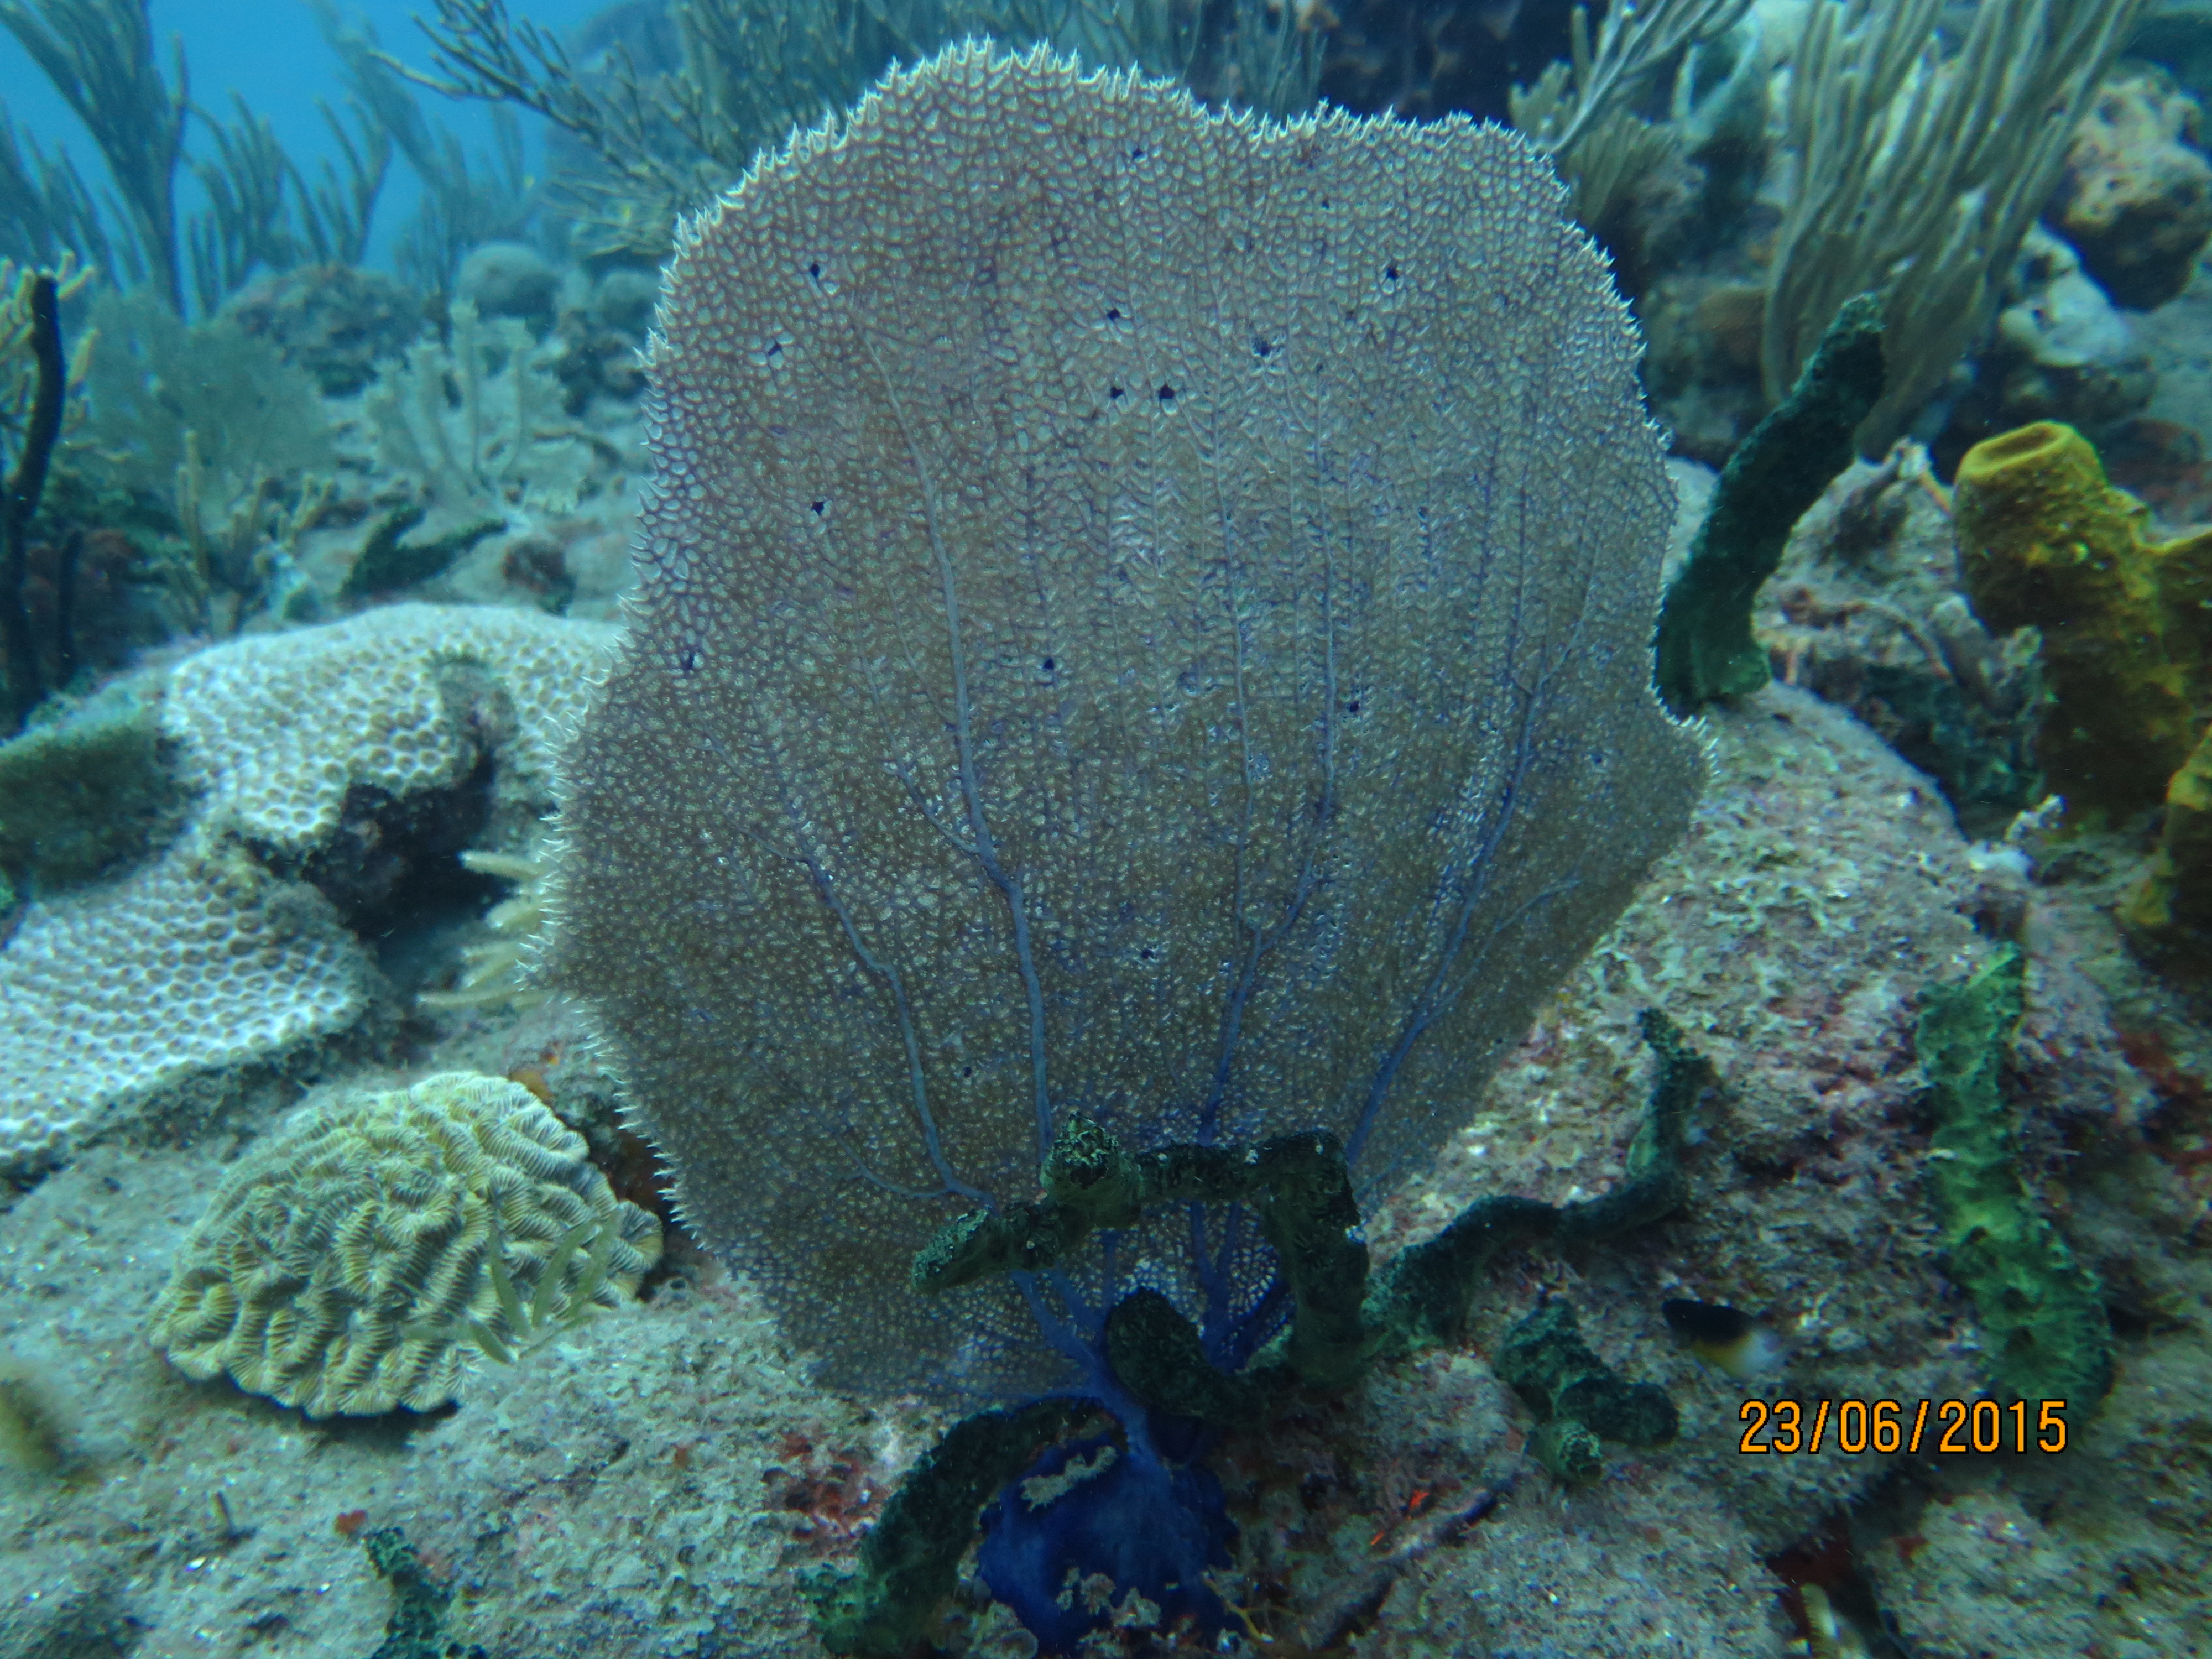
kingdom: Animalia
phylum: Cnidaria
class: Anthozoa
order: Malacalcyonacea
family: Gorgoniidae
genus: Gorgonia
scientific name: Gorgonia ventalina
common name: Common sea fan
